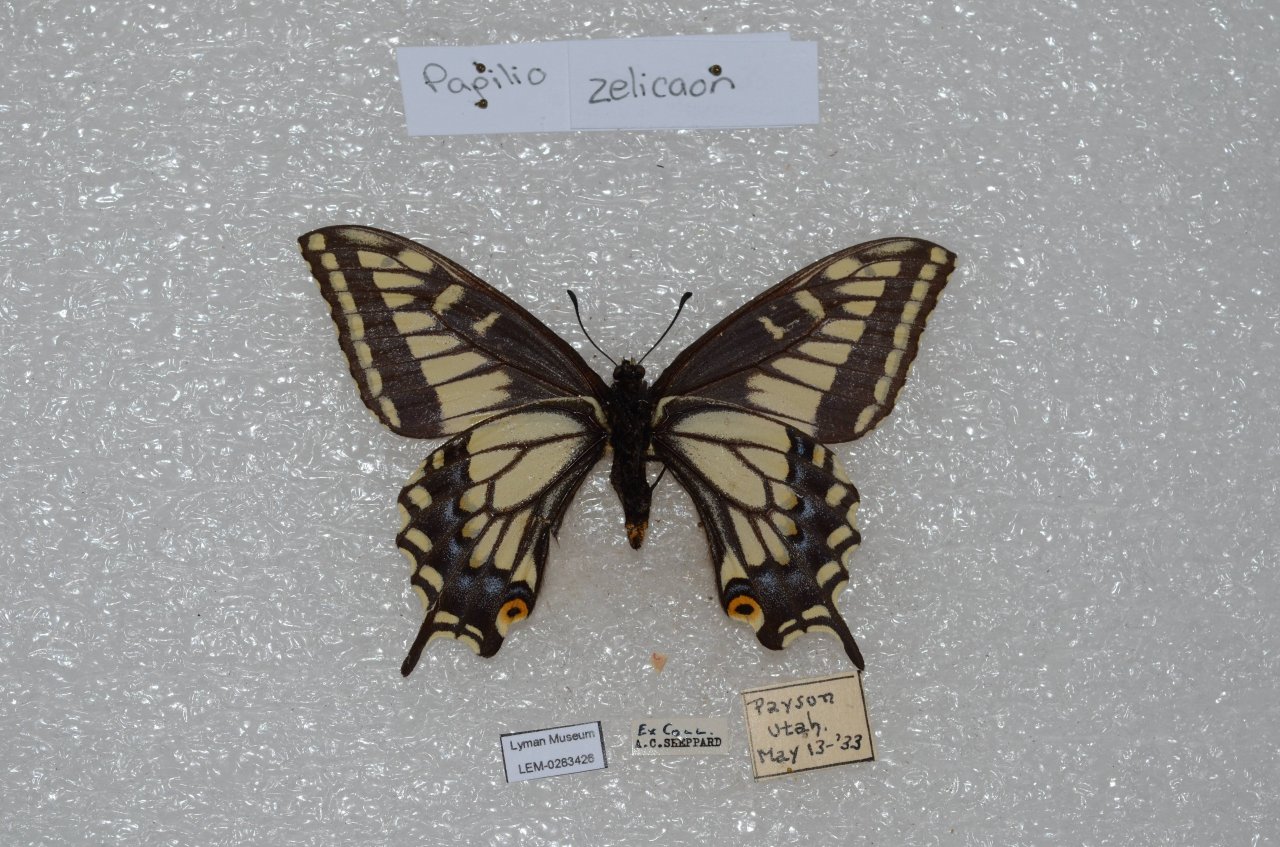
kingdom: Animalia
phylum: Arthropoda
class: Insecta
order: Lepidoptera
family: Papilionidae
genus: Papilio
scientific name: Papilio zelicaon
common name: Anise Swallowtail
